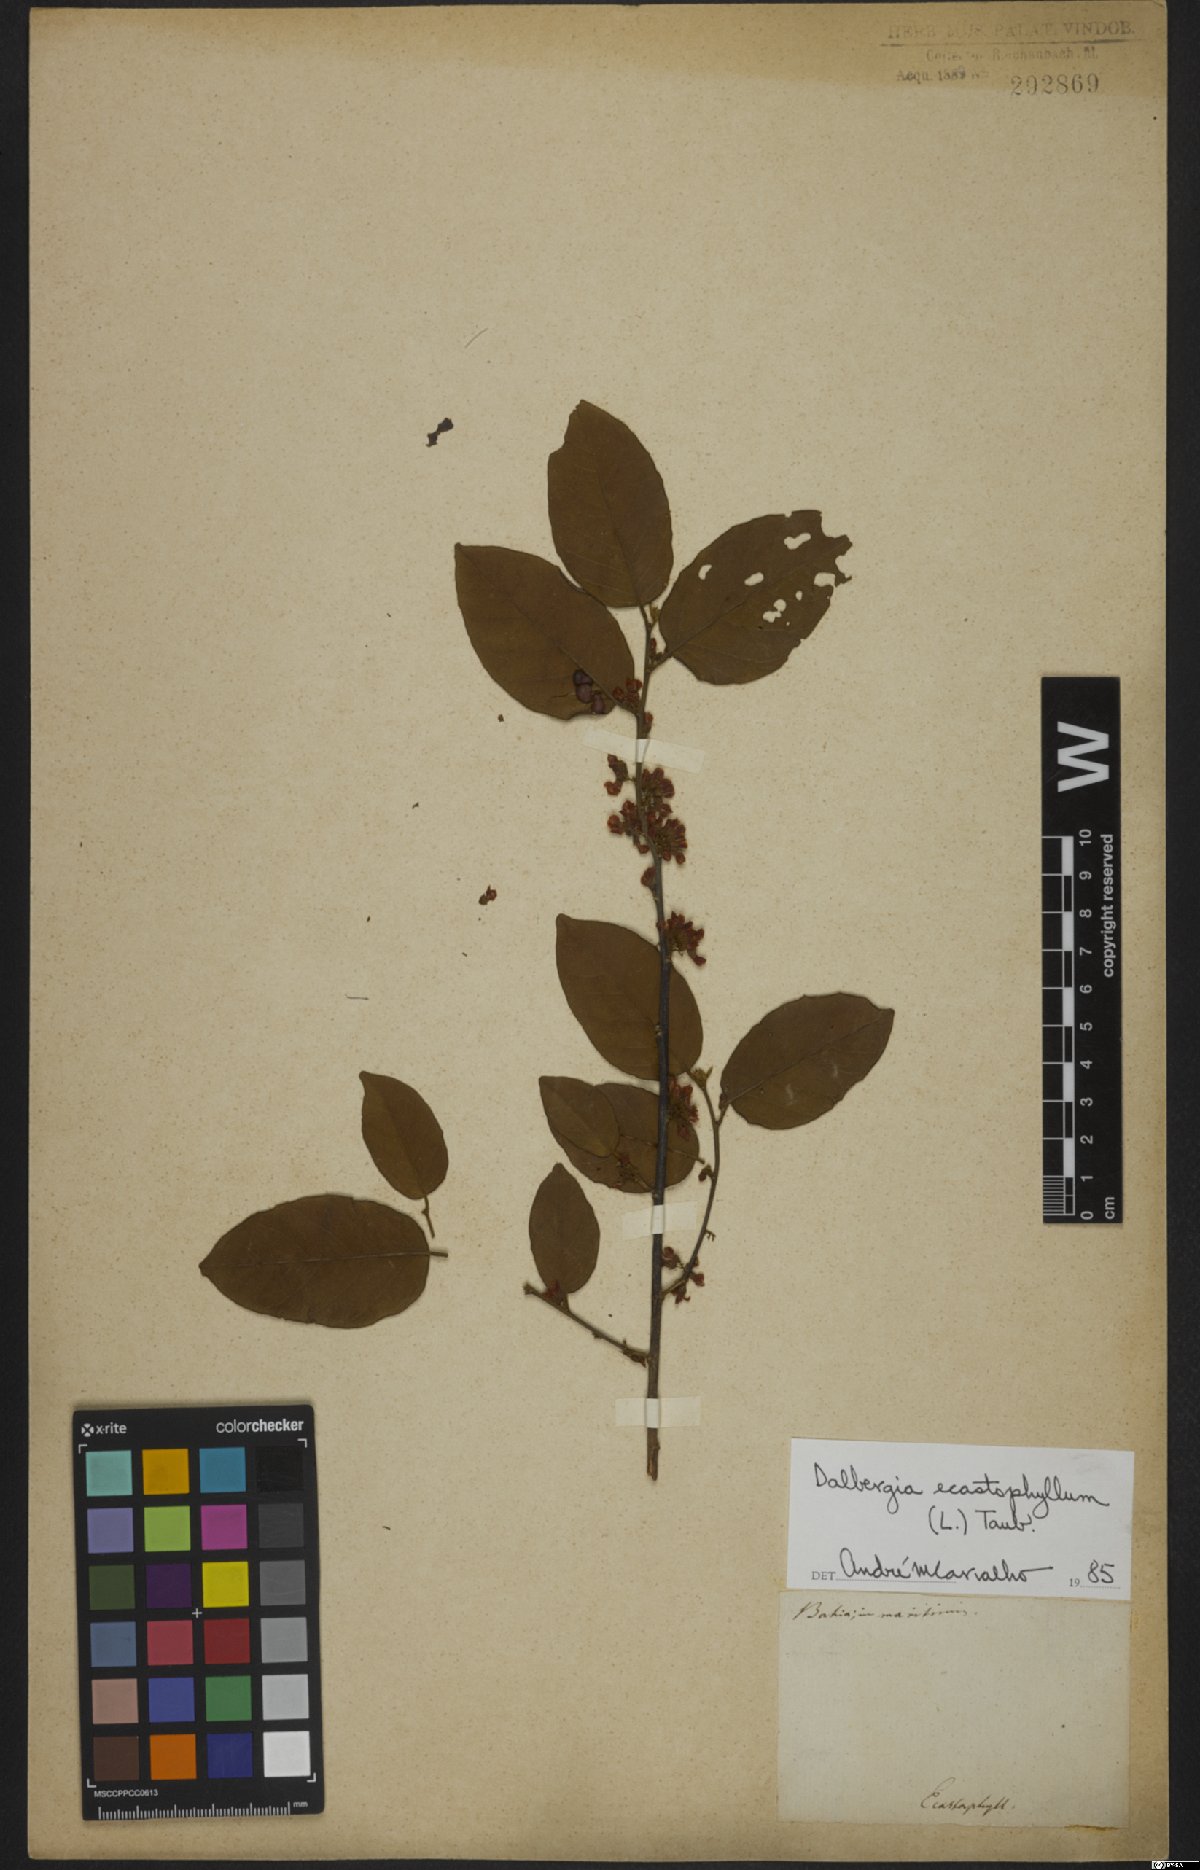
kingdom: Plantae
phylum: Tracheophyta
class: Magnoliopsida
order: Fabales
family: Fabaceae
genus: Dalbergia
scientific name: Dalbergia ecastaphyllum
